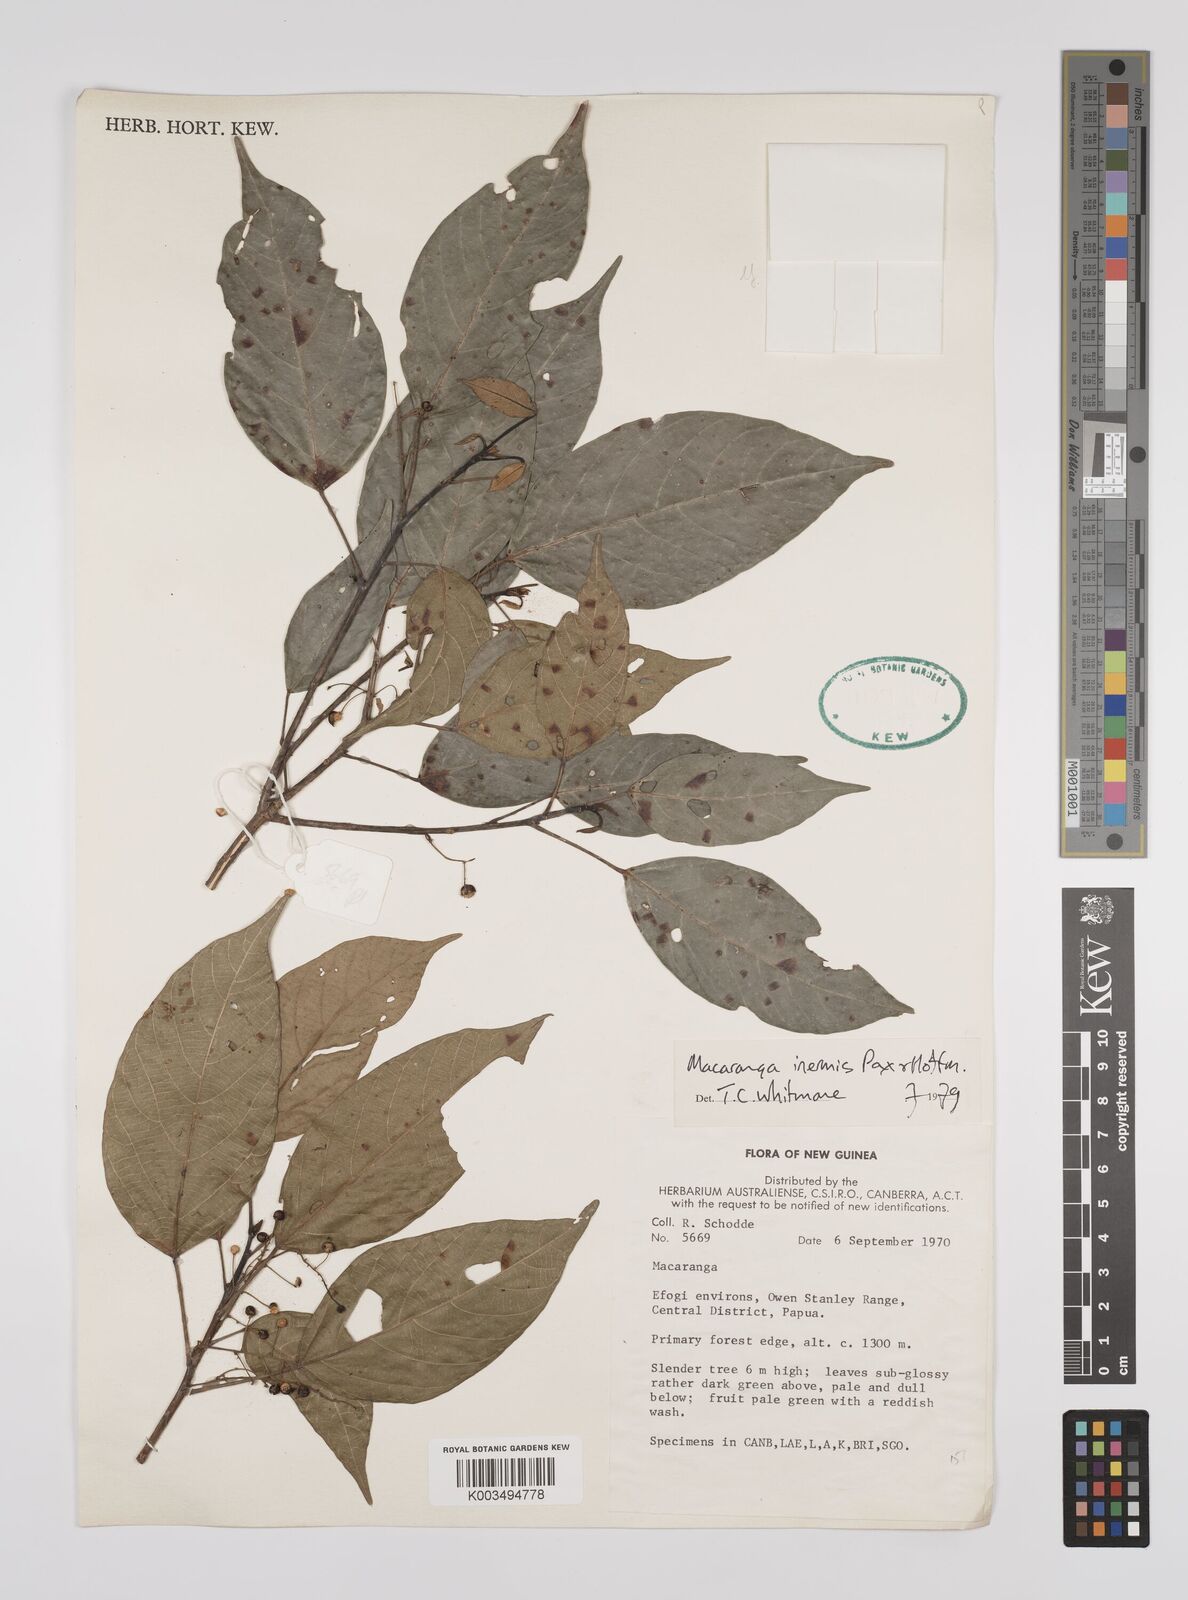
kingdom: Plantae
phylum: Tracheophyta
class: Magnoliopsida
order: Malpighiales
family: Euphorbiaceae
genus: Macaranga
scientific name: Macaranga inermis
